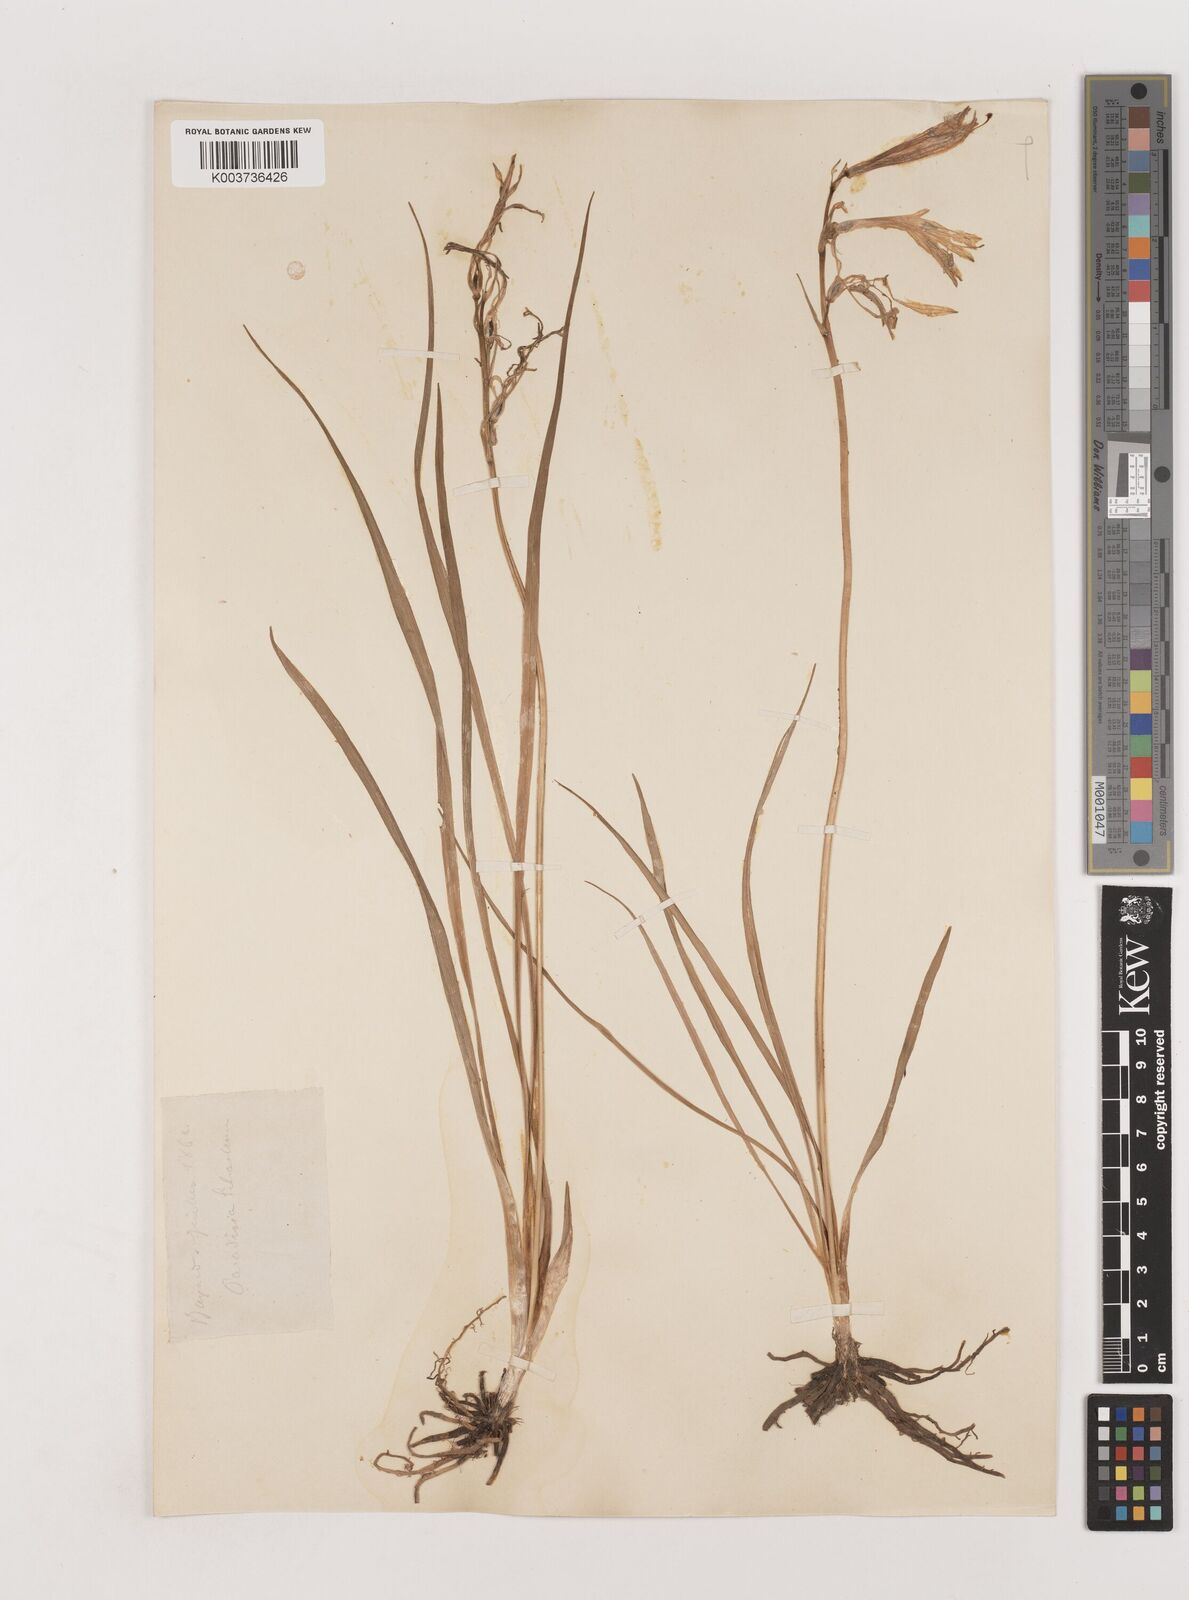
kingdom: Plantae
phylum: Tracheophyta
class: Liliopsida
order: Asparagales
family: Asparagaceae
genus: Paradisea
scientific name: Paradisea liliastrum
